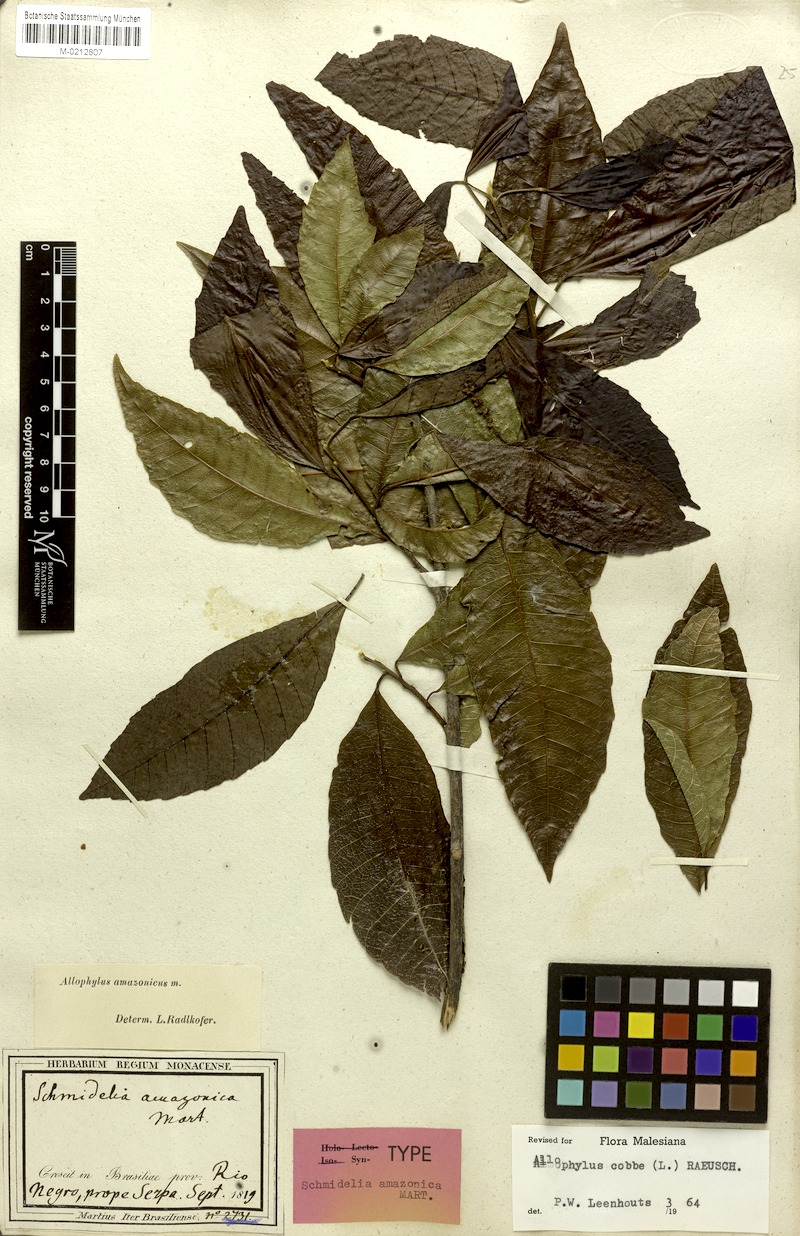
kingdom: Plantae
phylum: Tracheophyta
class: Magnoliopsida
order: Sapindales
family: Sapindaceae
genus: Allophylus
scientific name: Allophylus amazonicus
